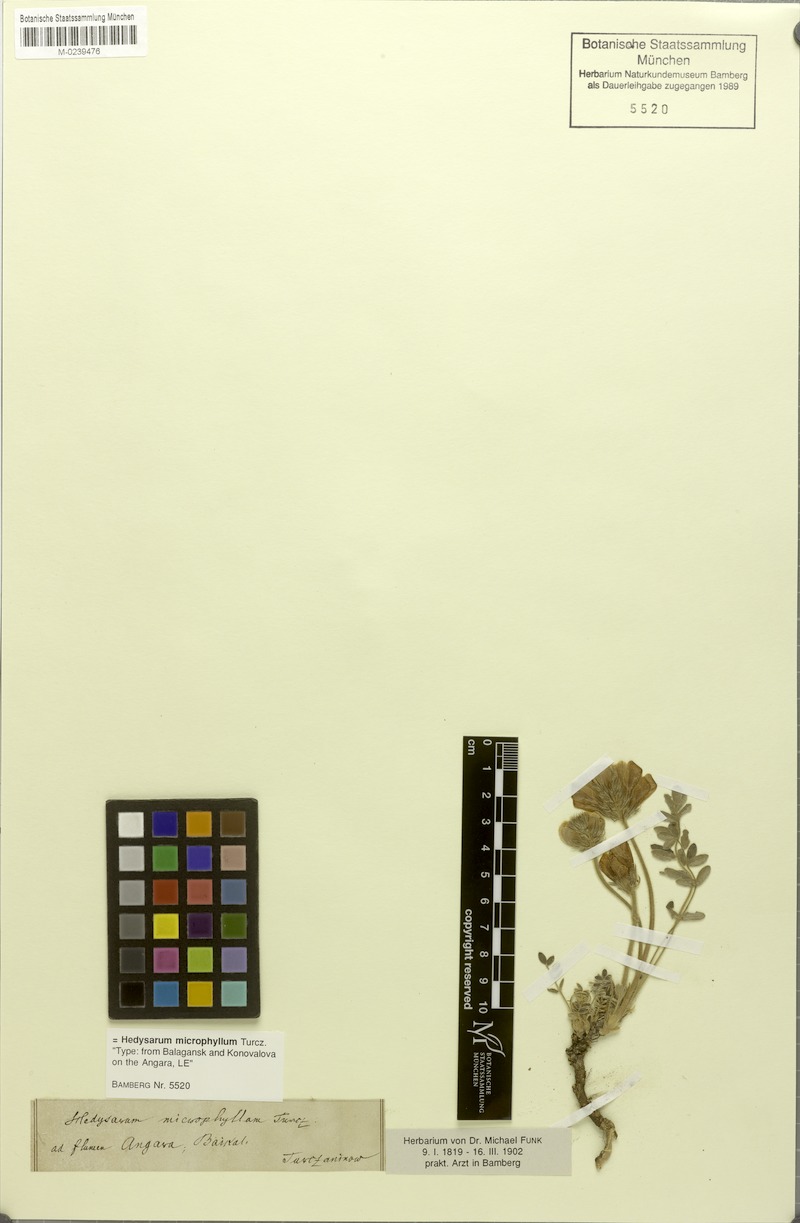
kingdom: Plantae
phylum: Tracheophyta
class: Magnoliopsida
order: Fabales
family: Fabaceae
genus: Hedysarum
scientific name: Hedysarum turczaninovii
